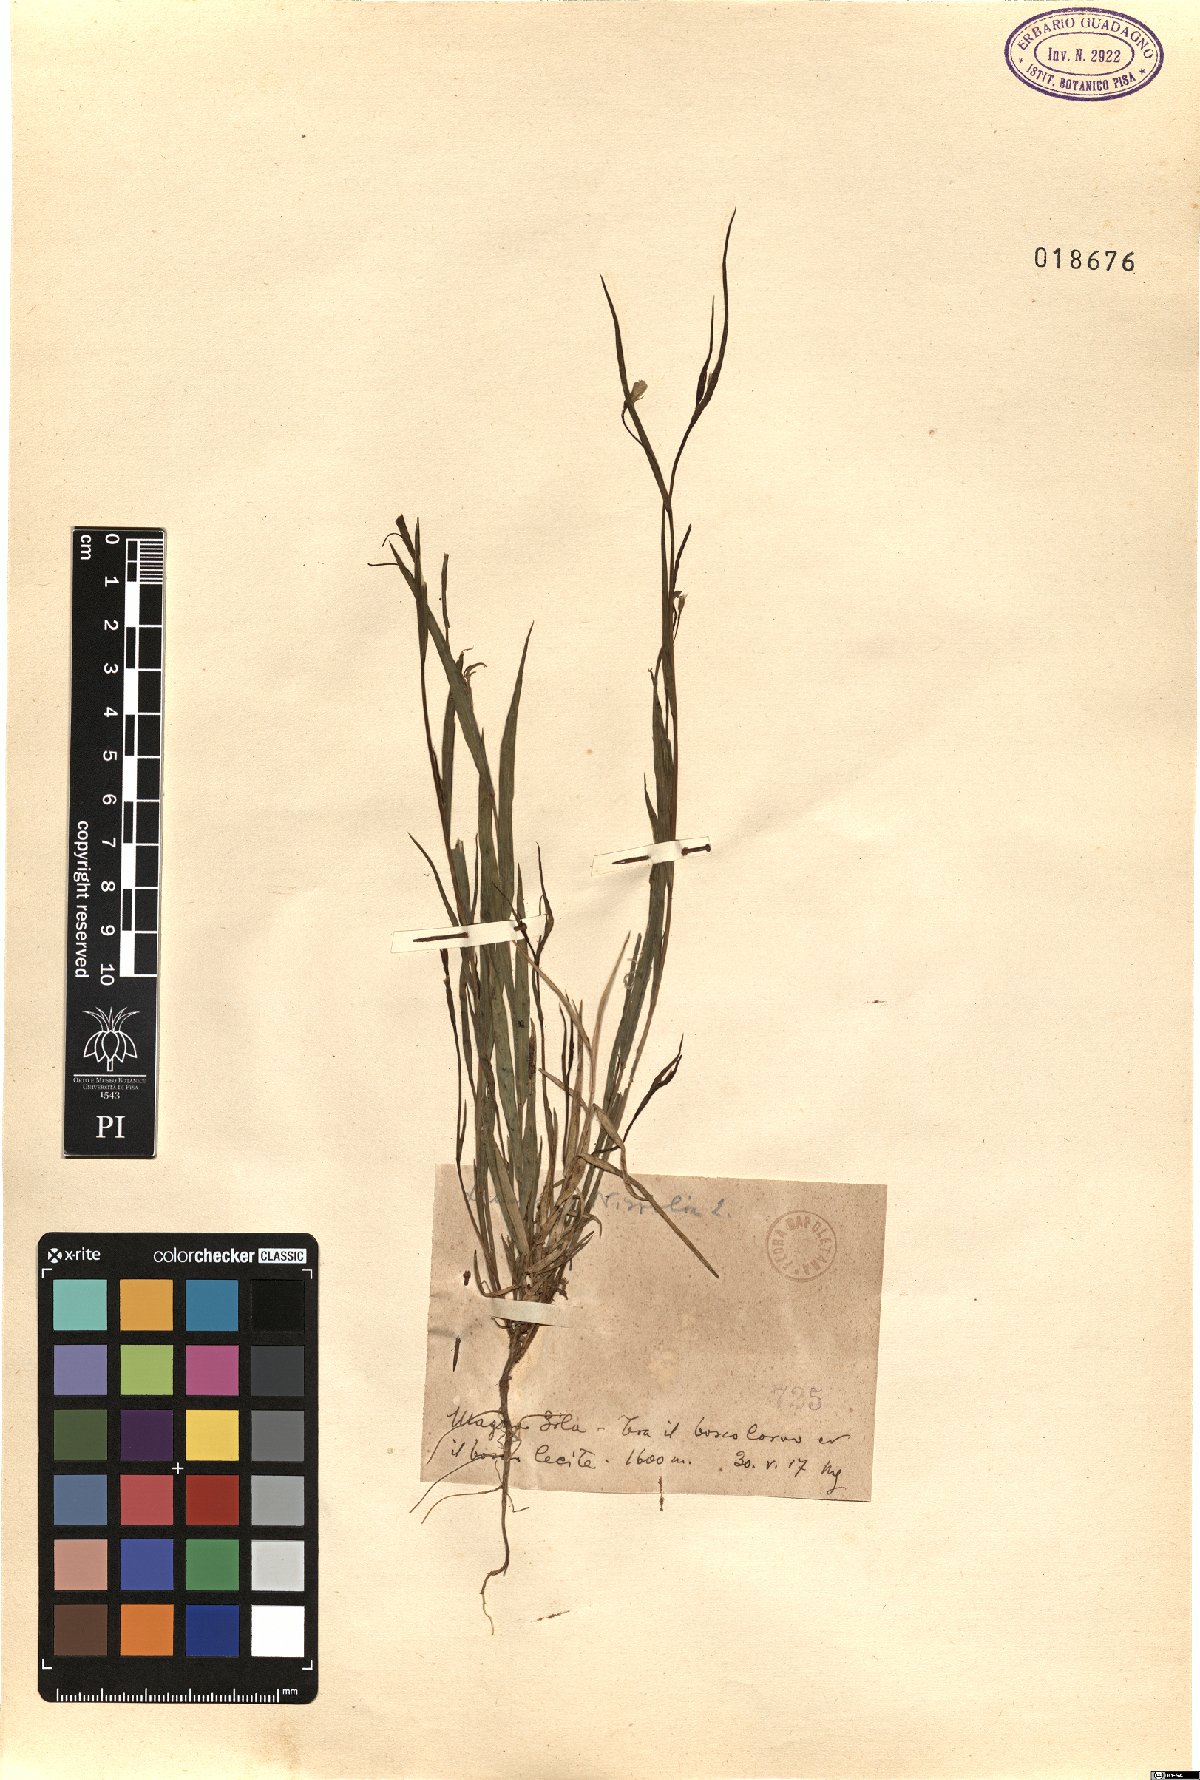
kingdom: Plantae
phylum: Tracheophyta
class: Magnoliopsida
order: Fabales
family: Fabaceae
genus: Lathyrus
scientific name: Lathyrus nissolia
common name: Grass vetchling
